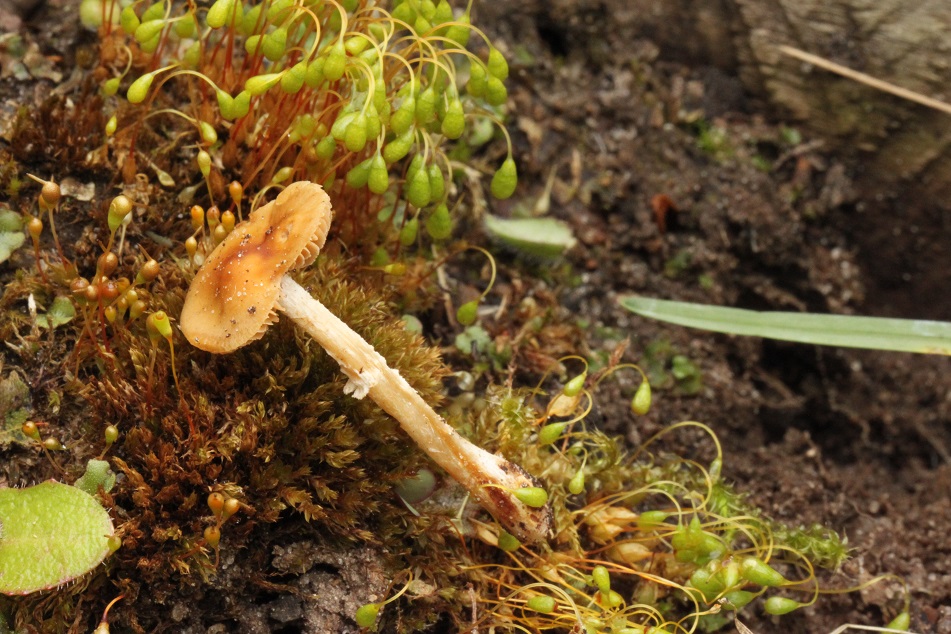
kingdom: Fungi
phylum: Basidiomycota
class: Agaricomycetes
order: Agaricales
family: Bolbitiaceae
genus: Conocybe
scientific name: Conocybe aporos
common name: tidlig dansehat
